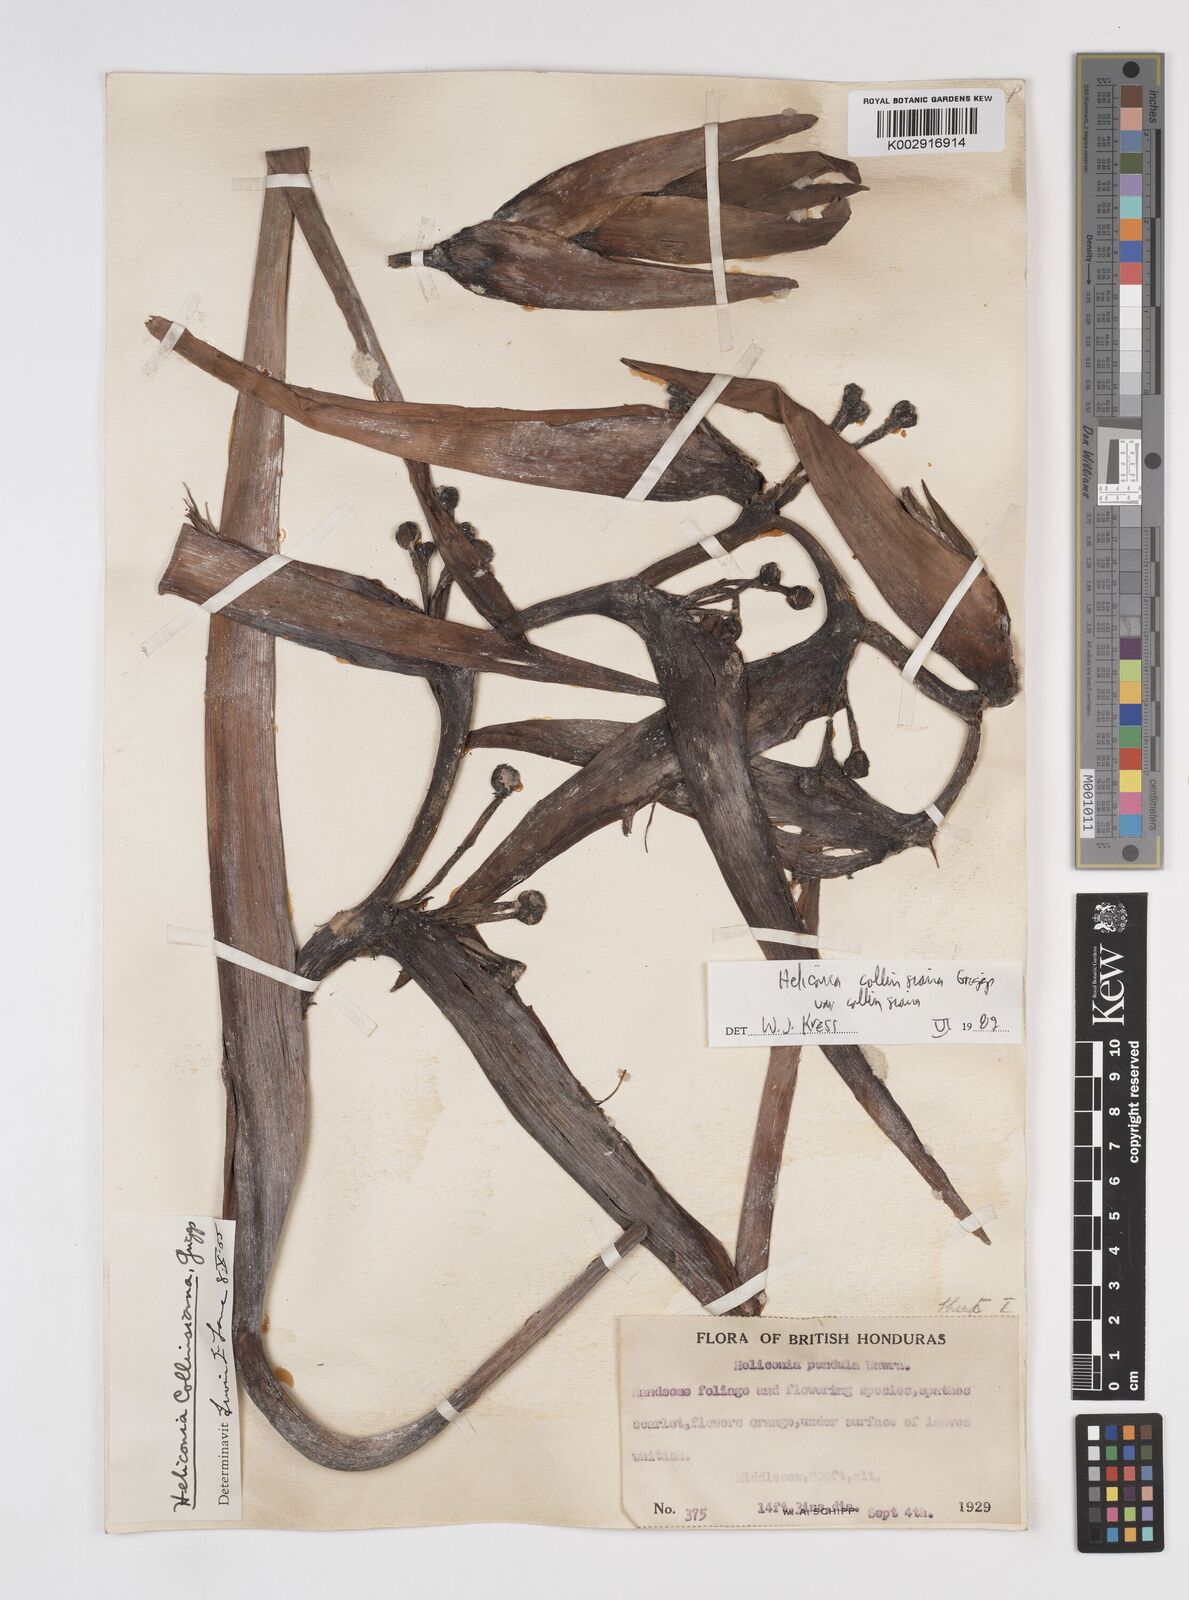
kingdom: Plantae
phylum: Tracheophyta
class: Liliopsida
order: Zingiberales
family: Heliconiaceae
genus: Heliconia
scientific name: Heliconia collinsiana
